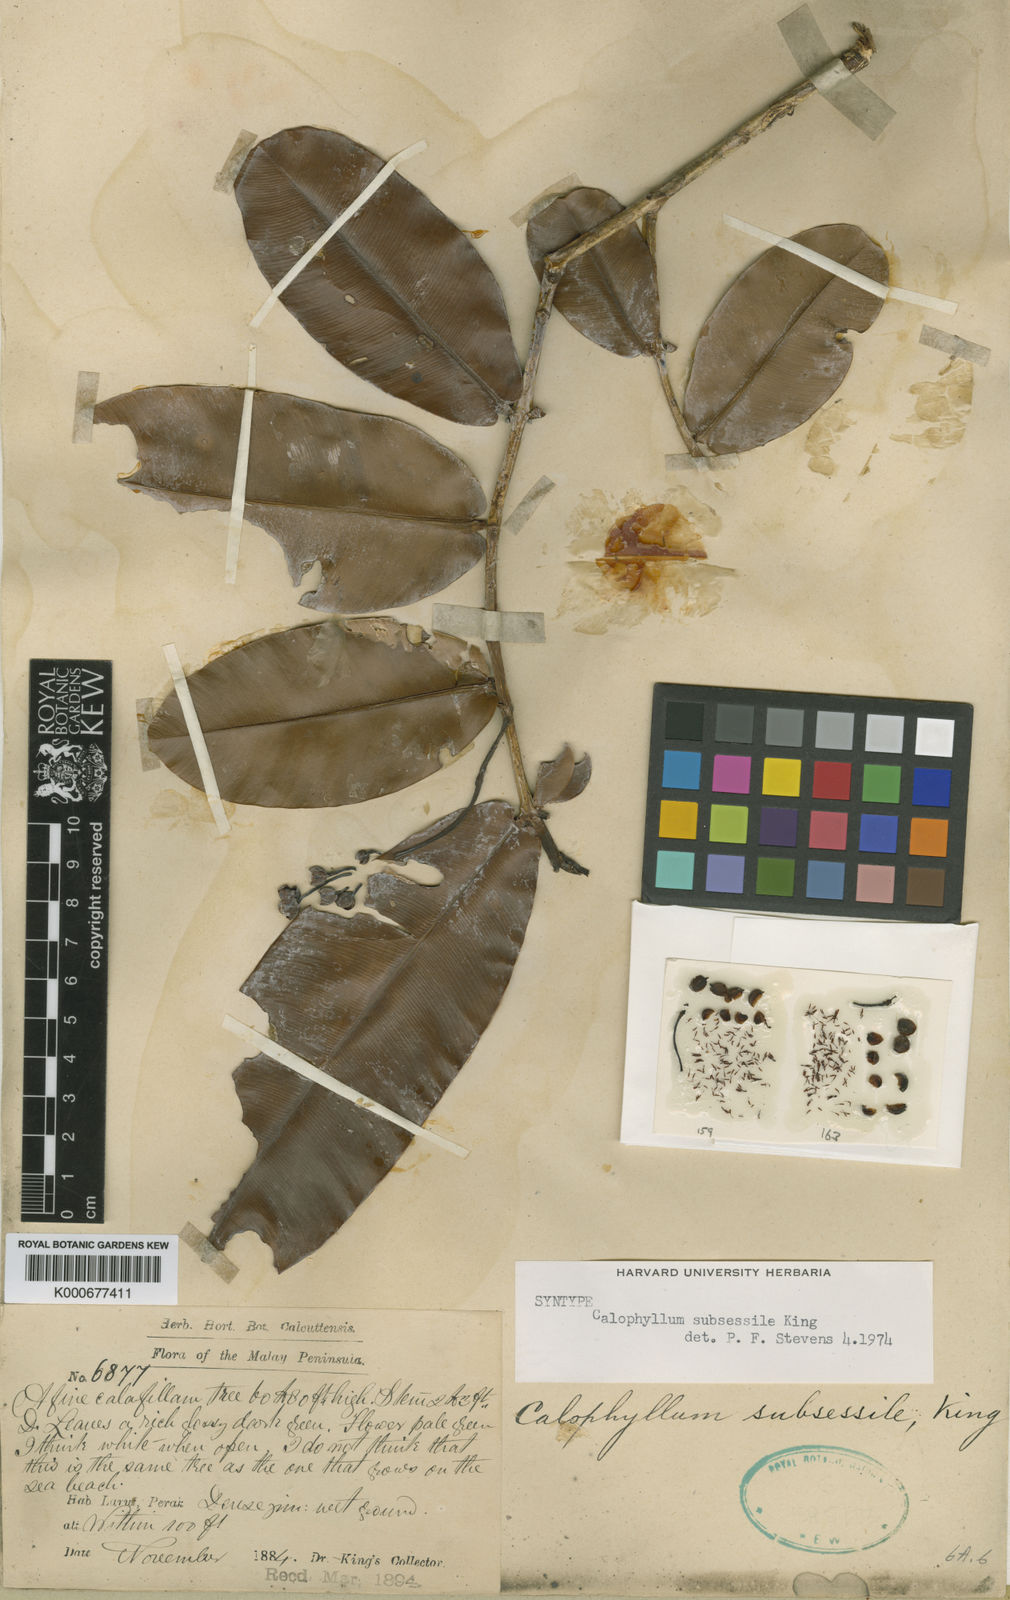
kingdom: Plantae
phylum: Tracheophyta
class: Magnoliopsida
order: Malpighiales
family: Calophyllaceae
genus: Calophyllum
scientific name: Calophyllum subsessile
